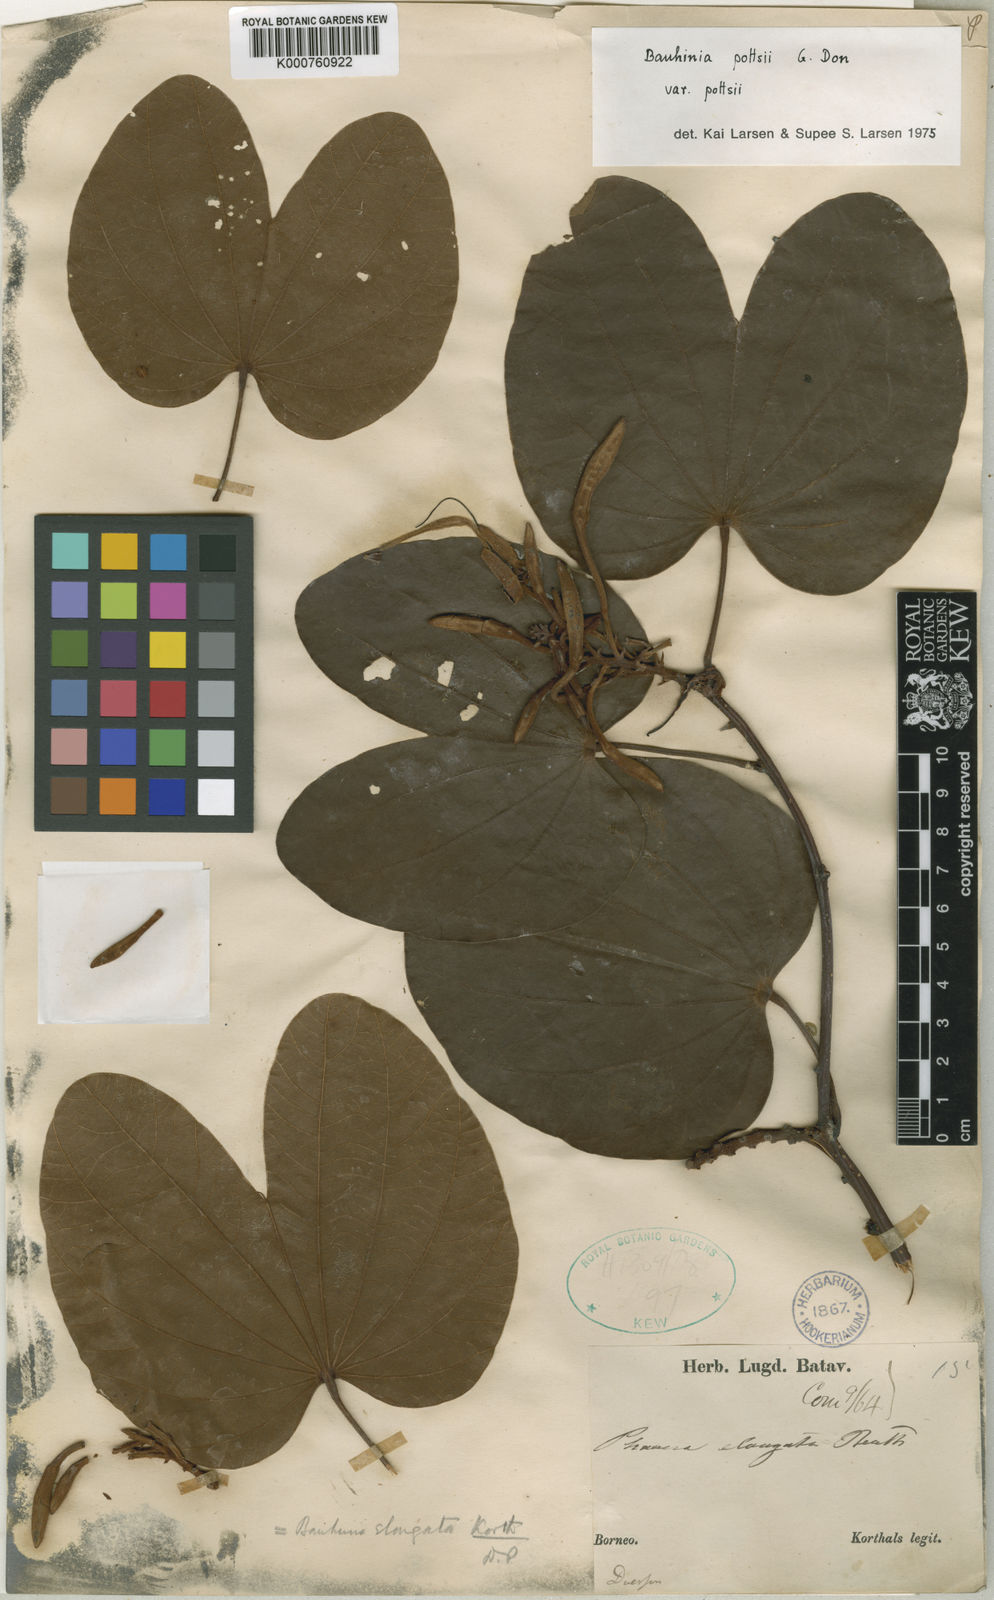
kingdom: Plantae
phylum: Tracheophyta
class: Magnoliopsida
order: Fabales
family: Fabaceae
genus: Bauhinia
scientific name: Bauhinia pottsii
